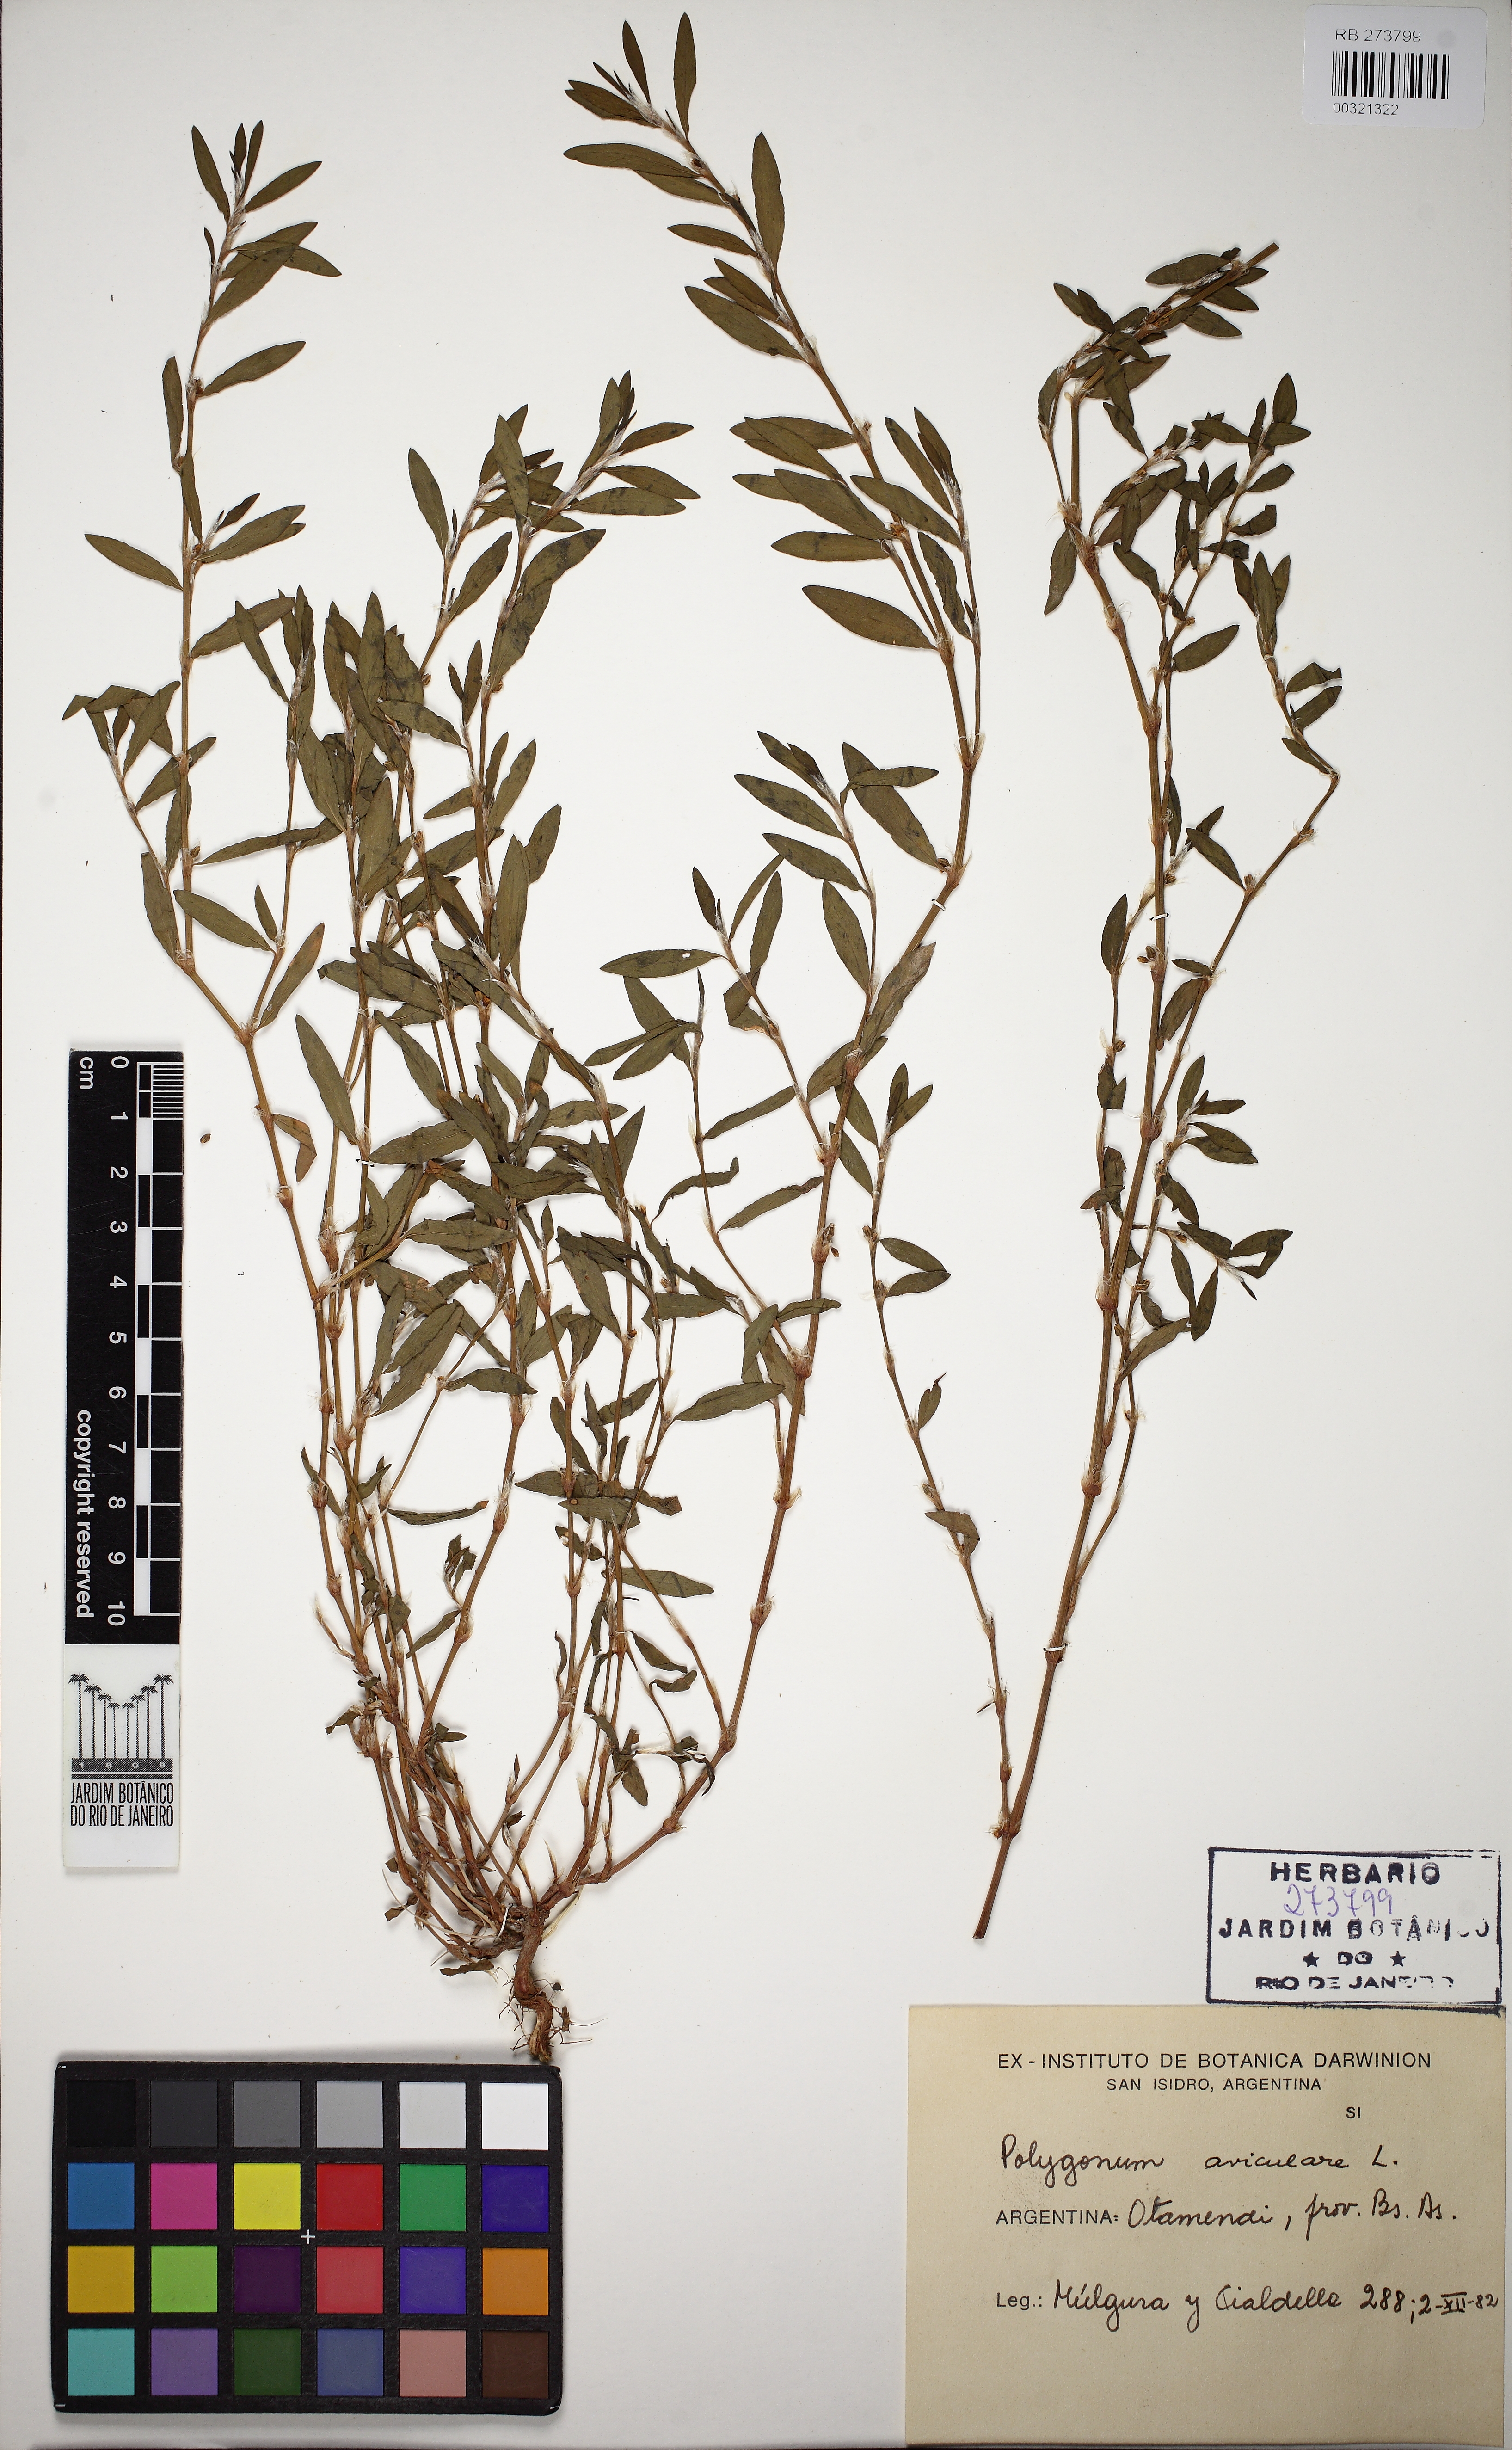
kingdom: Plantae
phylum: Tracheophyta
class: Magnoliopsida
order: Caryophyllales
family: Polygonaceae
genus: Polygonum
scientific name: Polygonum aviculare
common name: Prostrate knotweed
